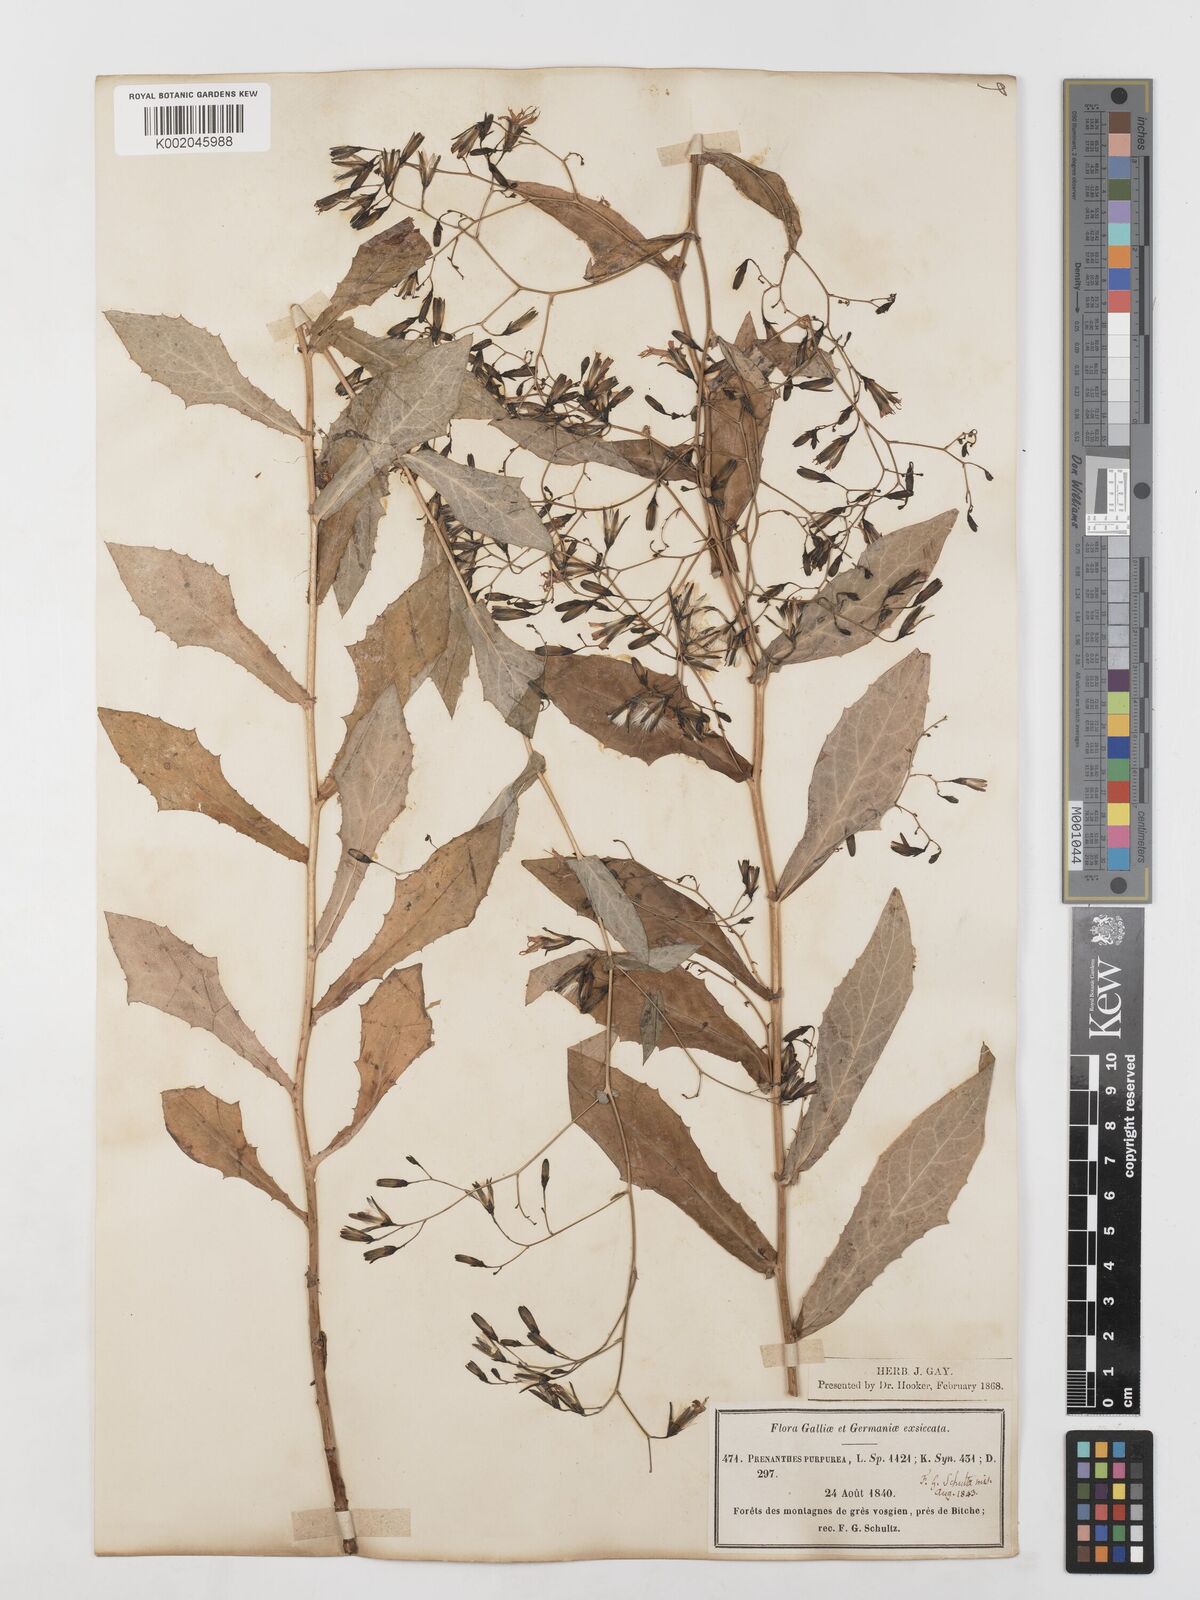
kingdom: Plantae
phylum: Tracheophyta
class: Magnoliopsida
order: Asterales
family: Asteraceae
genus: Prenanthes
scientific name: Prenanthes purpurea
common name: Purple lettuce
